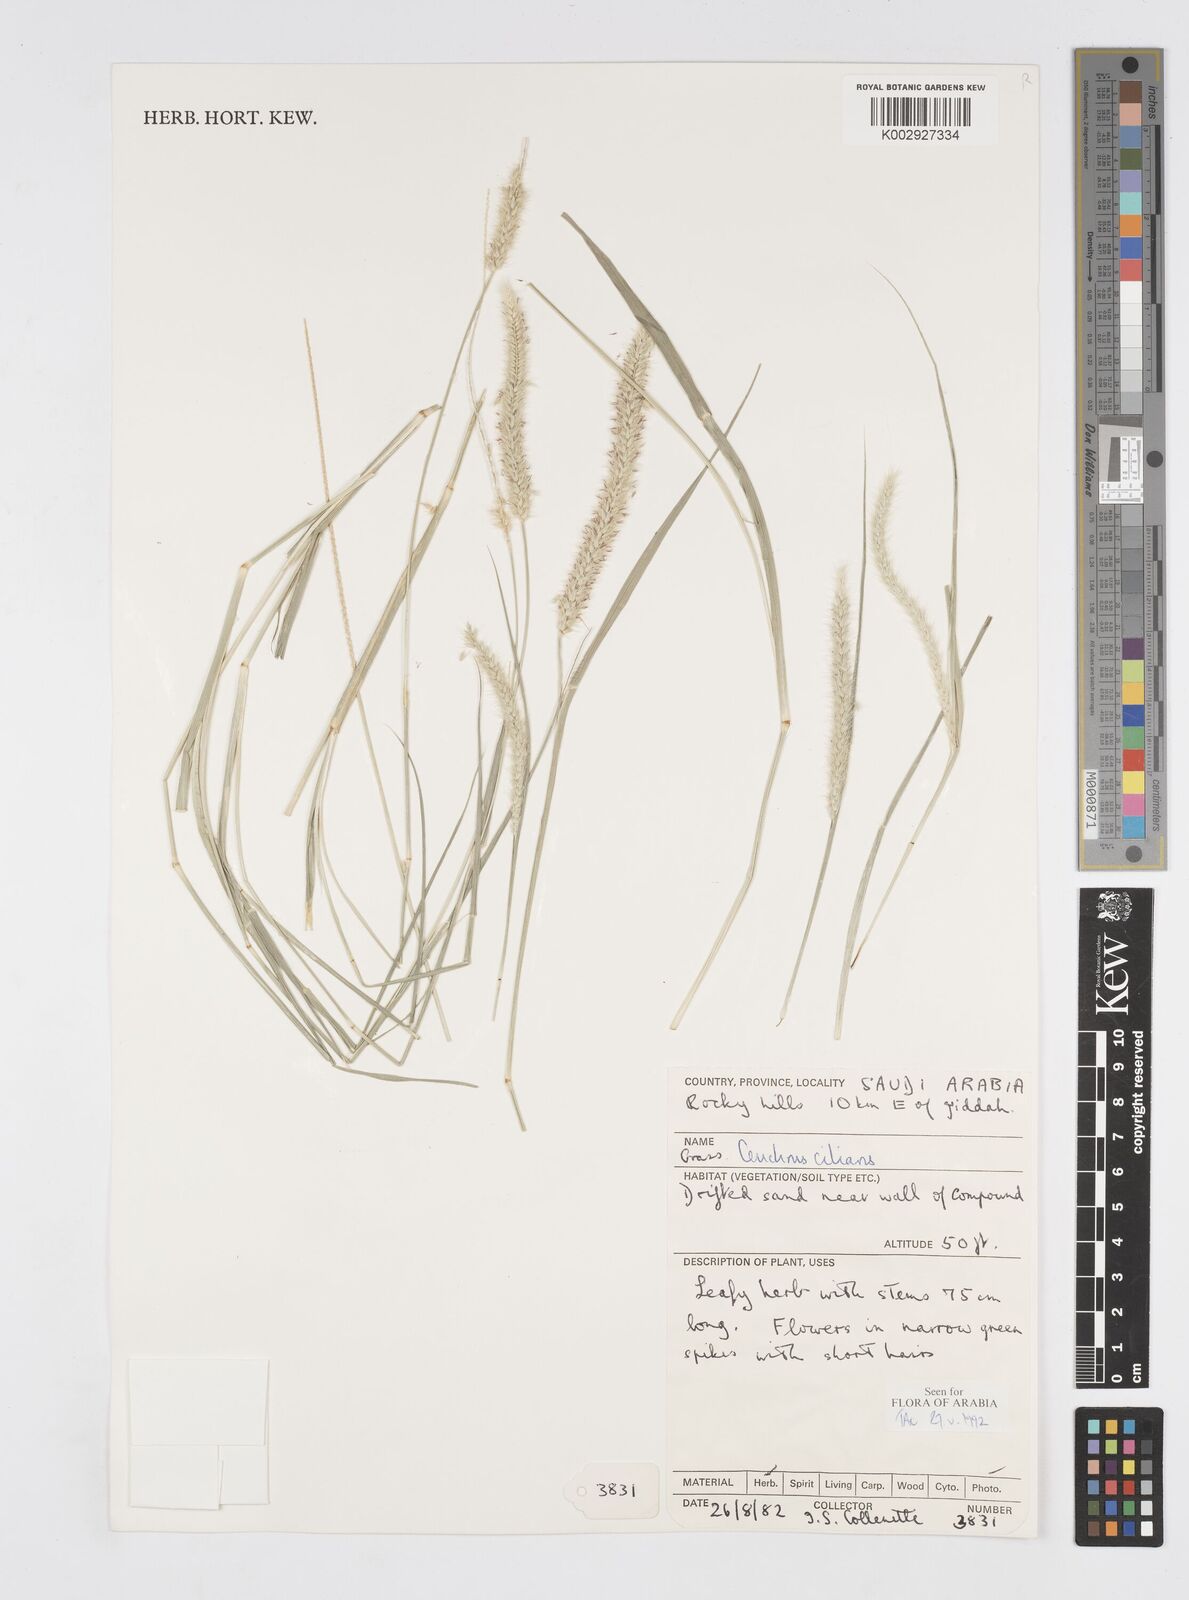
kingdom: Plantae
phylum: Tracheophyta
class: Liliopsida
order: Poales
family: Poaceae
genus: Cenchrus
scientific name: Cenchrus ciliaris
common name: Buffelgrass
